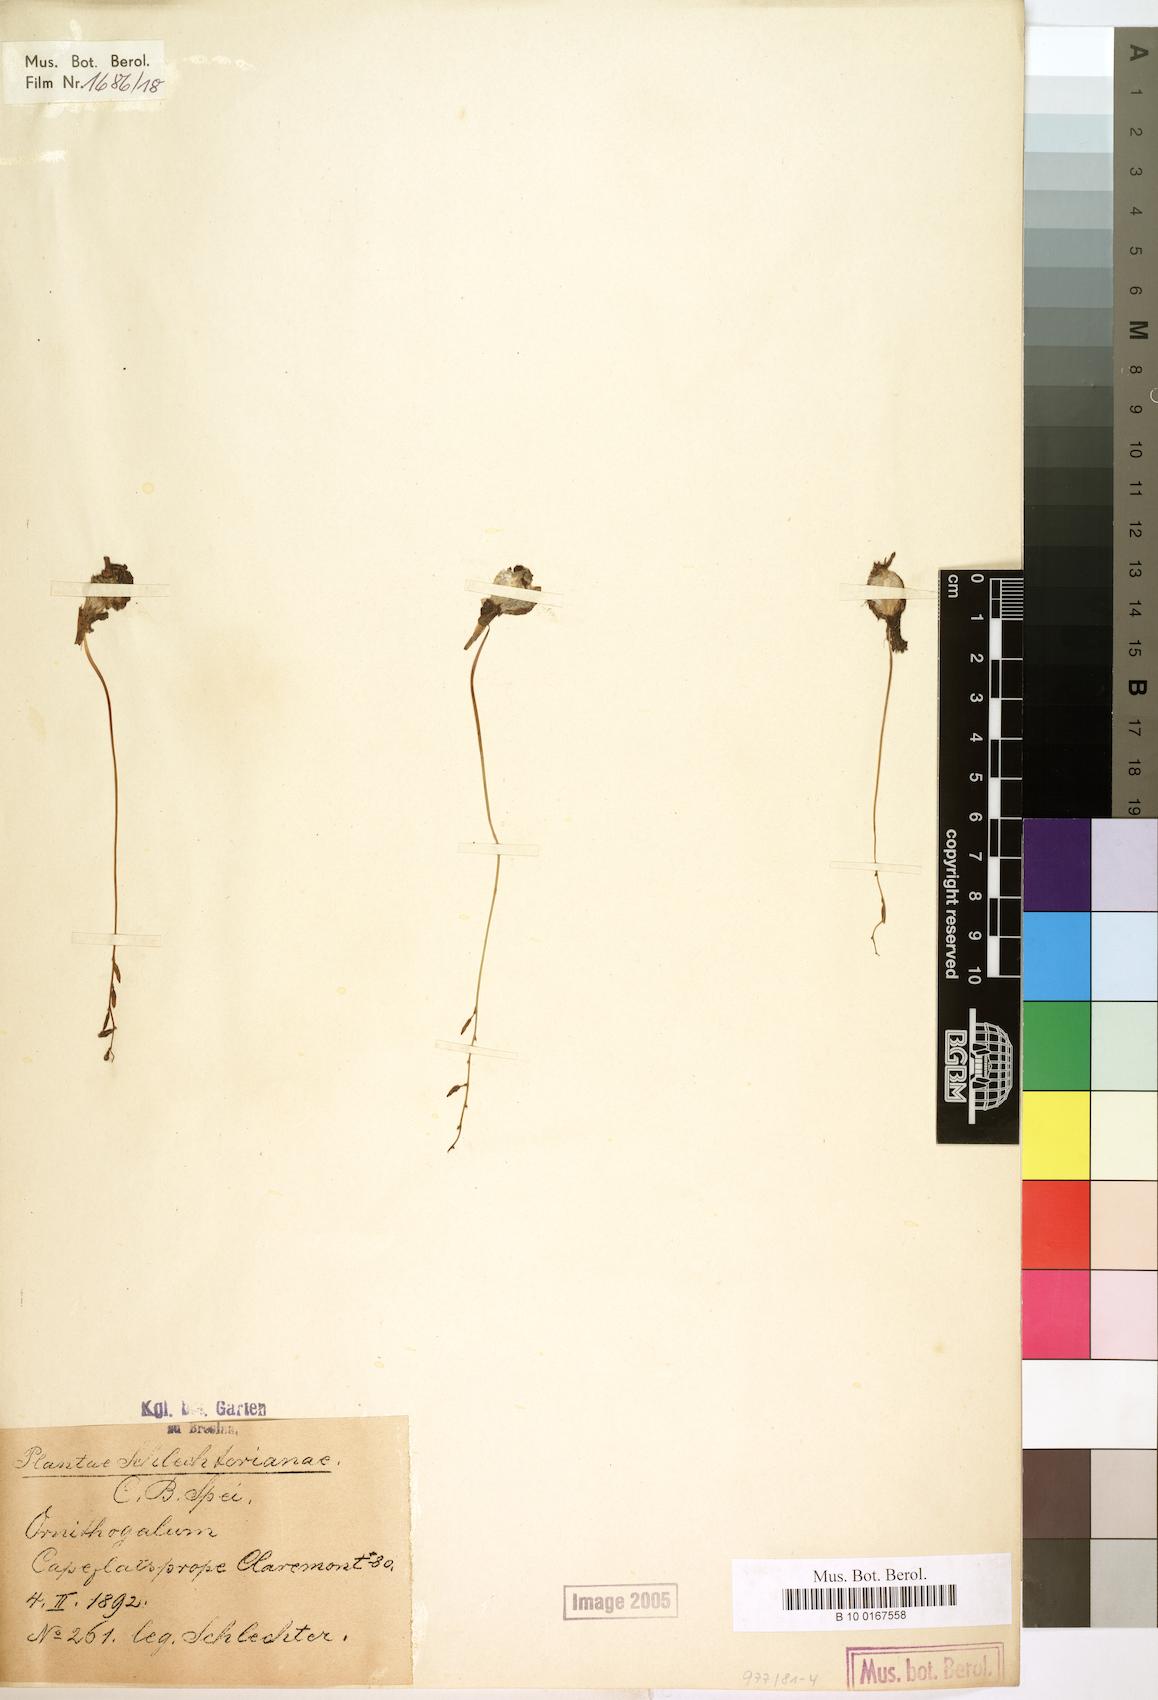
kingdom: Plantae
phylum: Tracheophyta
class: Liliopsida
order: Liliales
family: Liliaceae
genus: Ornithogalum
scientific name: Ornithogalum
